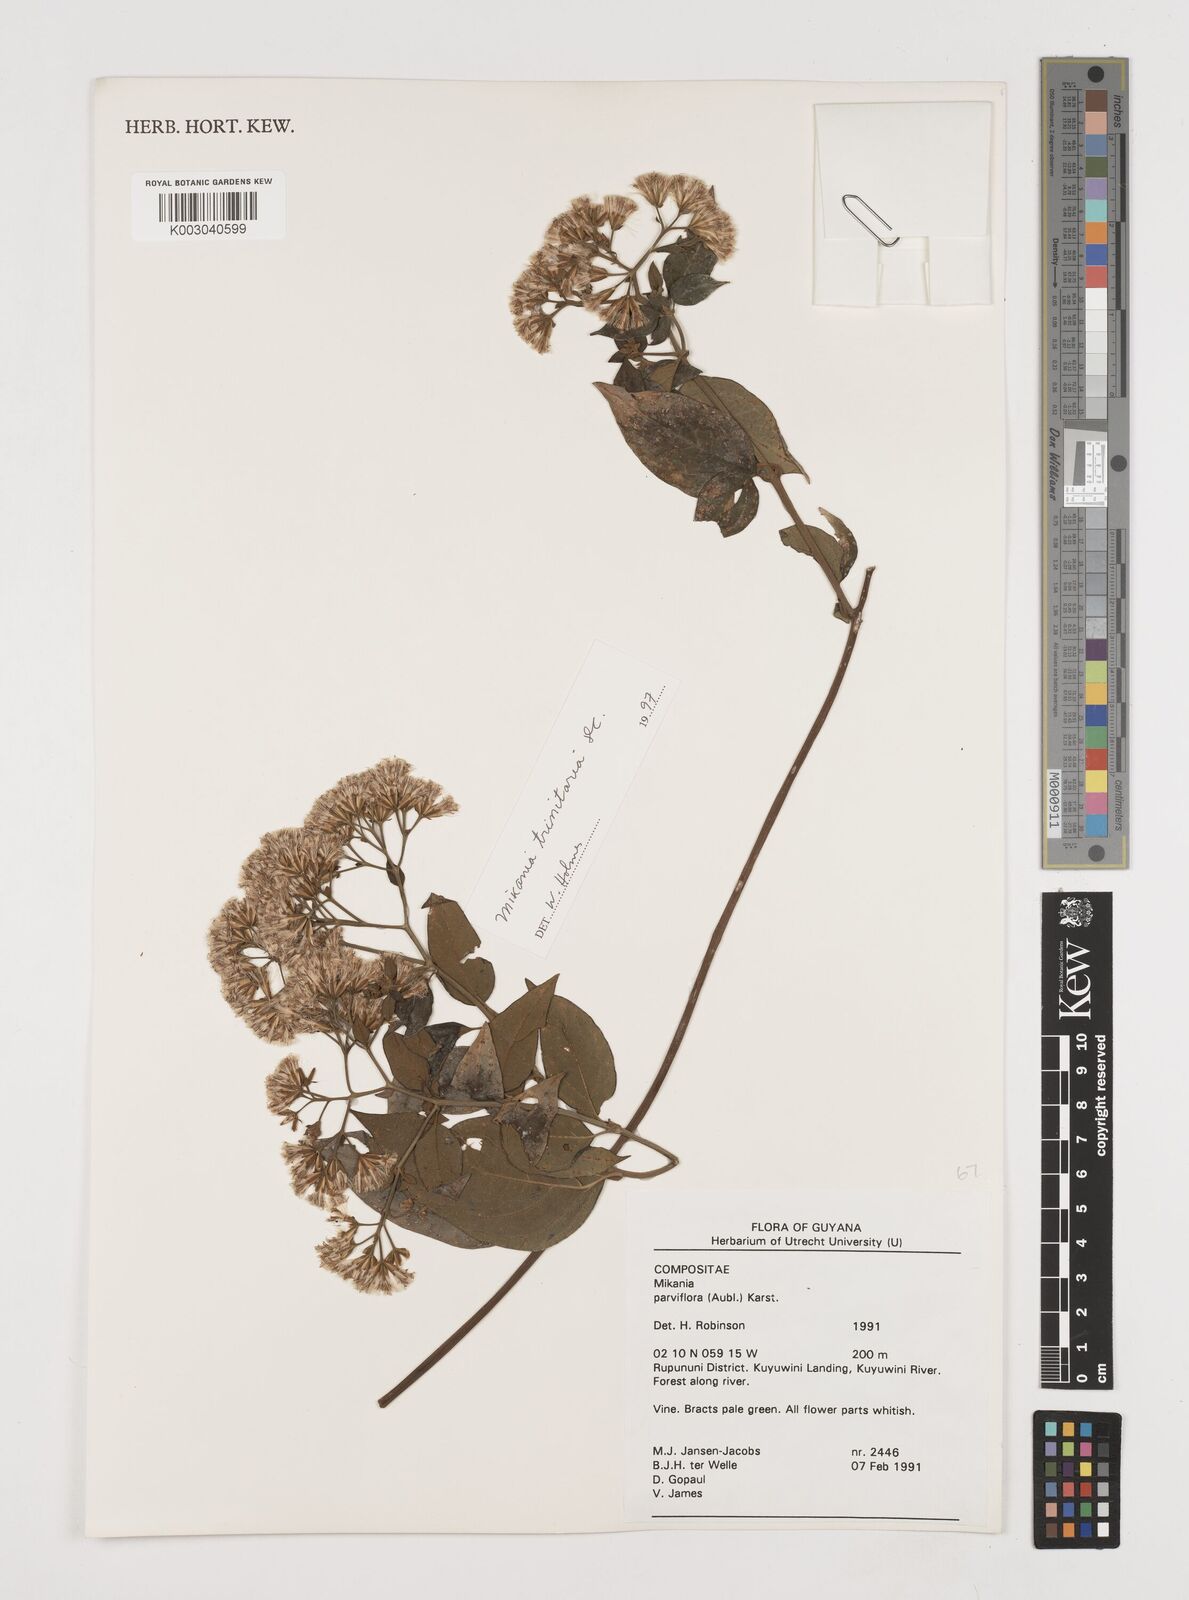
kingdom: Plantae
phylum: Tracheophyta
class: Magnoliopsida
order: Asterales
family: Asteraceae
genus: Mikania
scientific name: Mikania trinitaria
